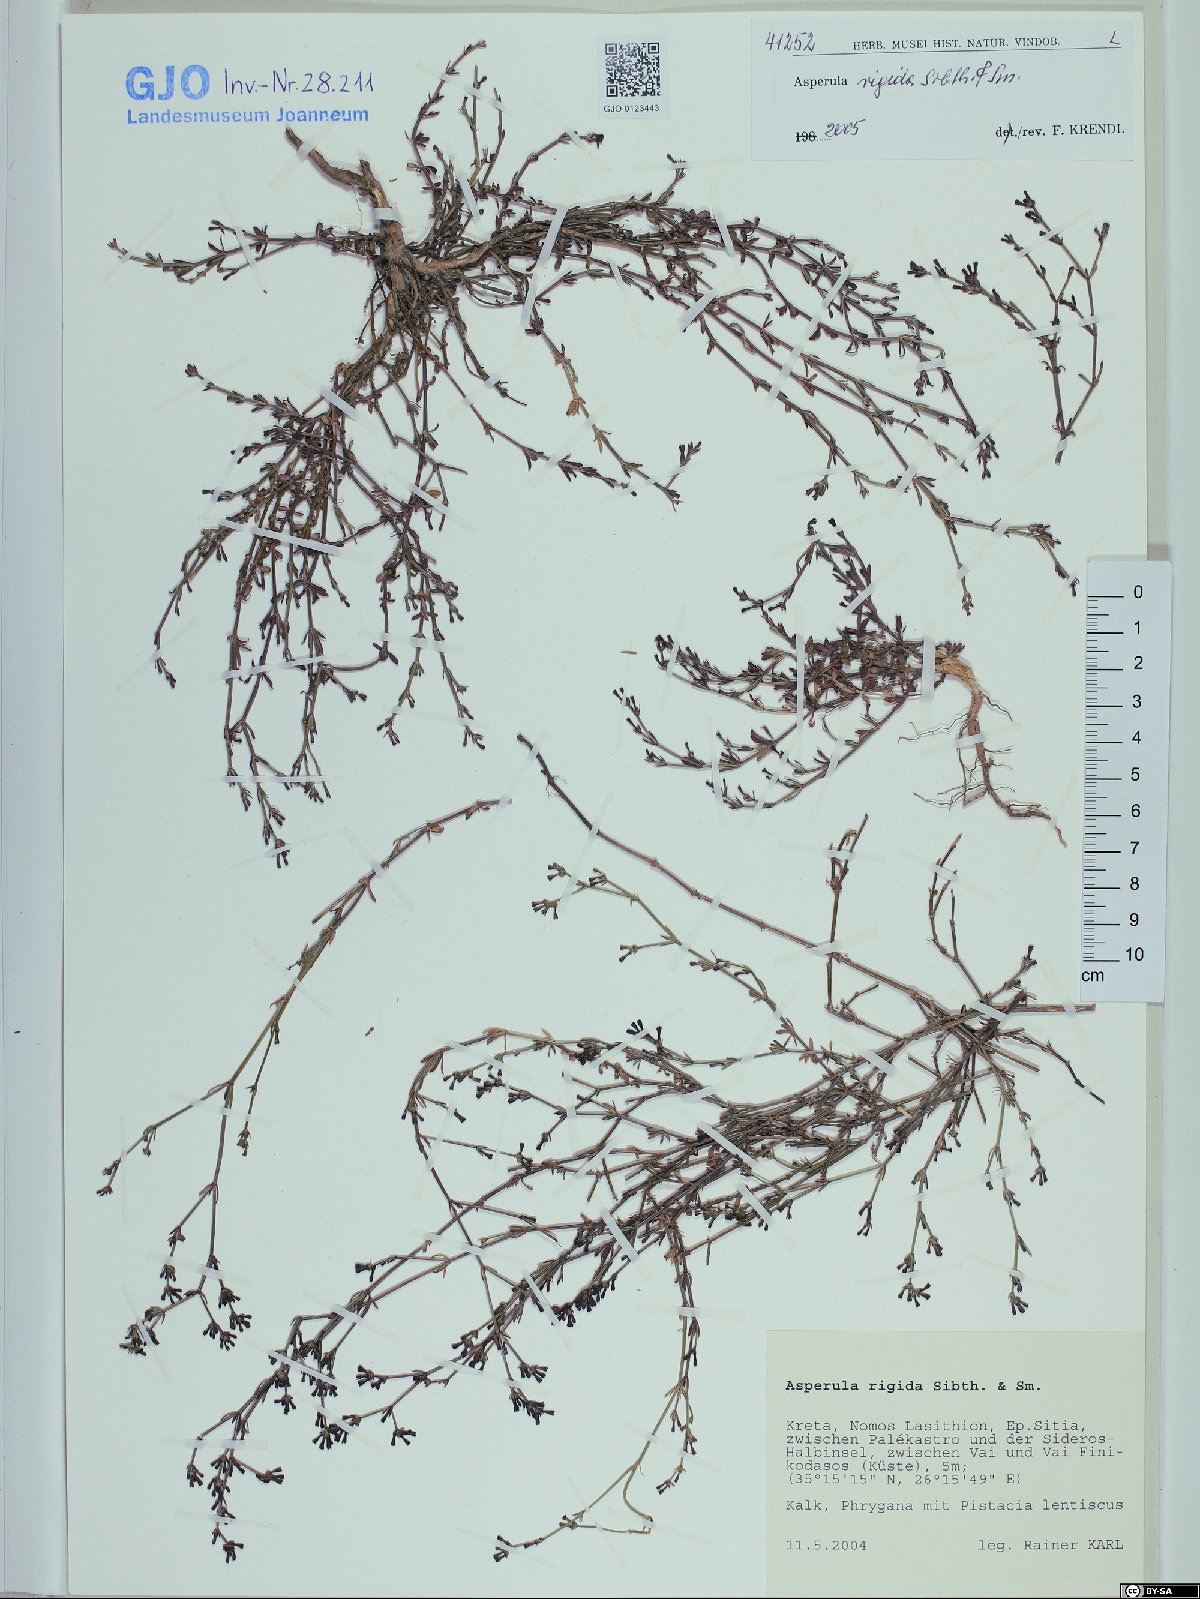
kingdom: Plantae
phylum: Tracheophyta
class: Magnoliopsida
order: Gentianales
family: Rubiaceae
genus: Thliphthisa
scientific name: Thliphthisa rigida
